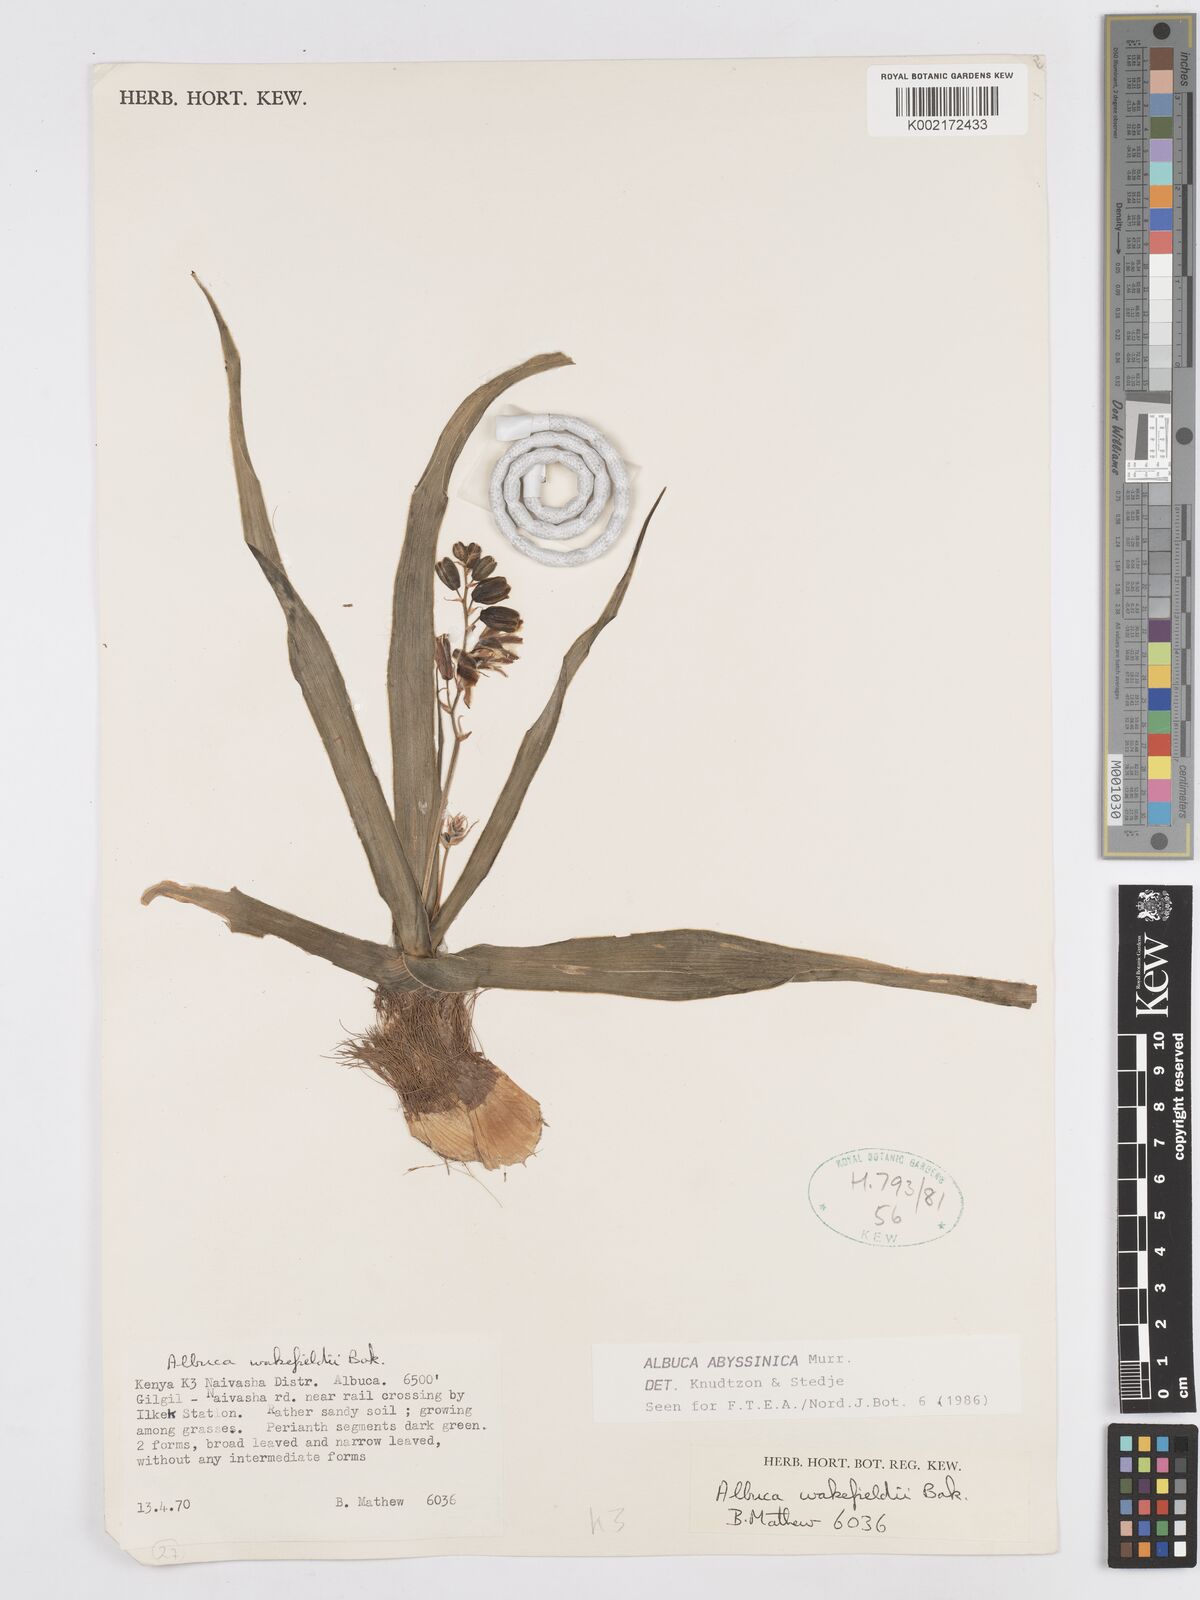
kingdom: Plantae
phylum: Tracheophyta
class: Liliopsida
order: Asparagales
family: Asparagaceae
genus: Albuca
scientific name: Albuca abyssinica
